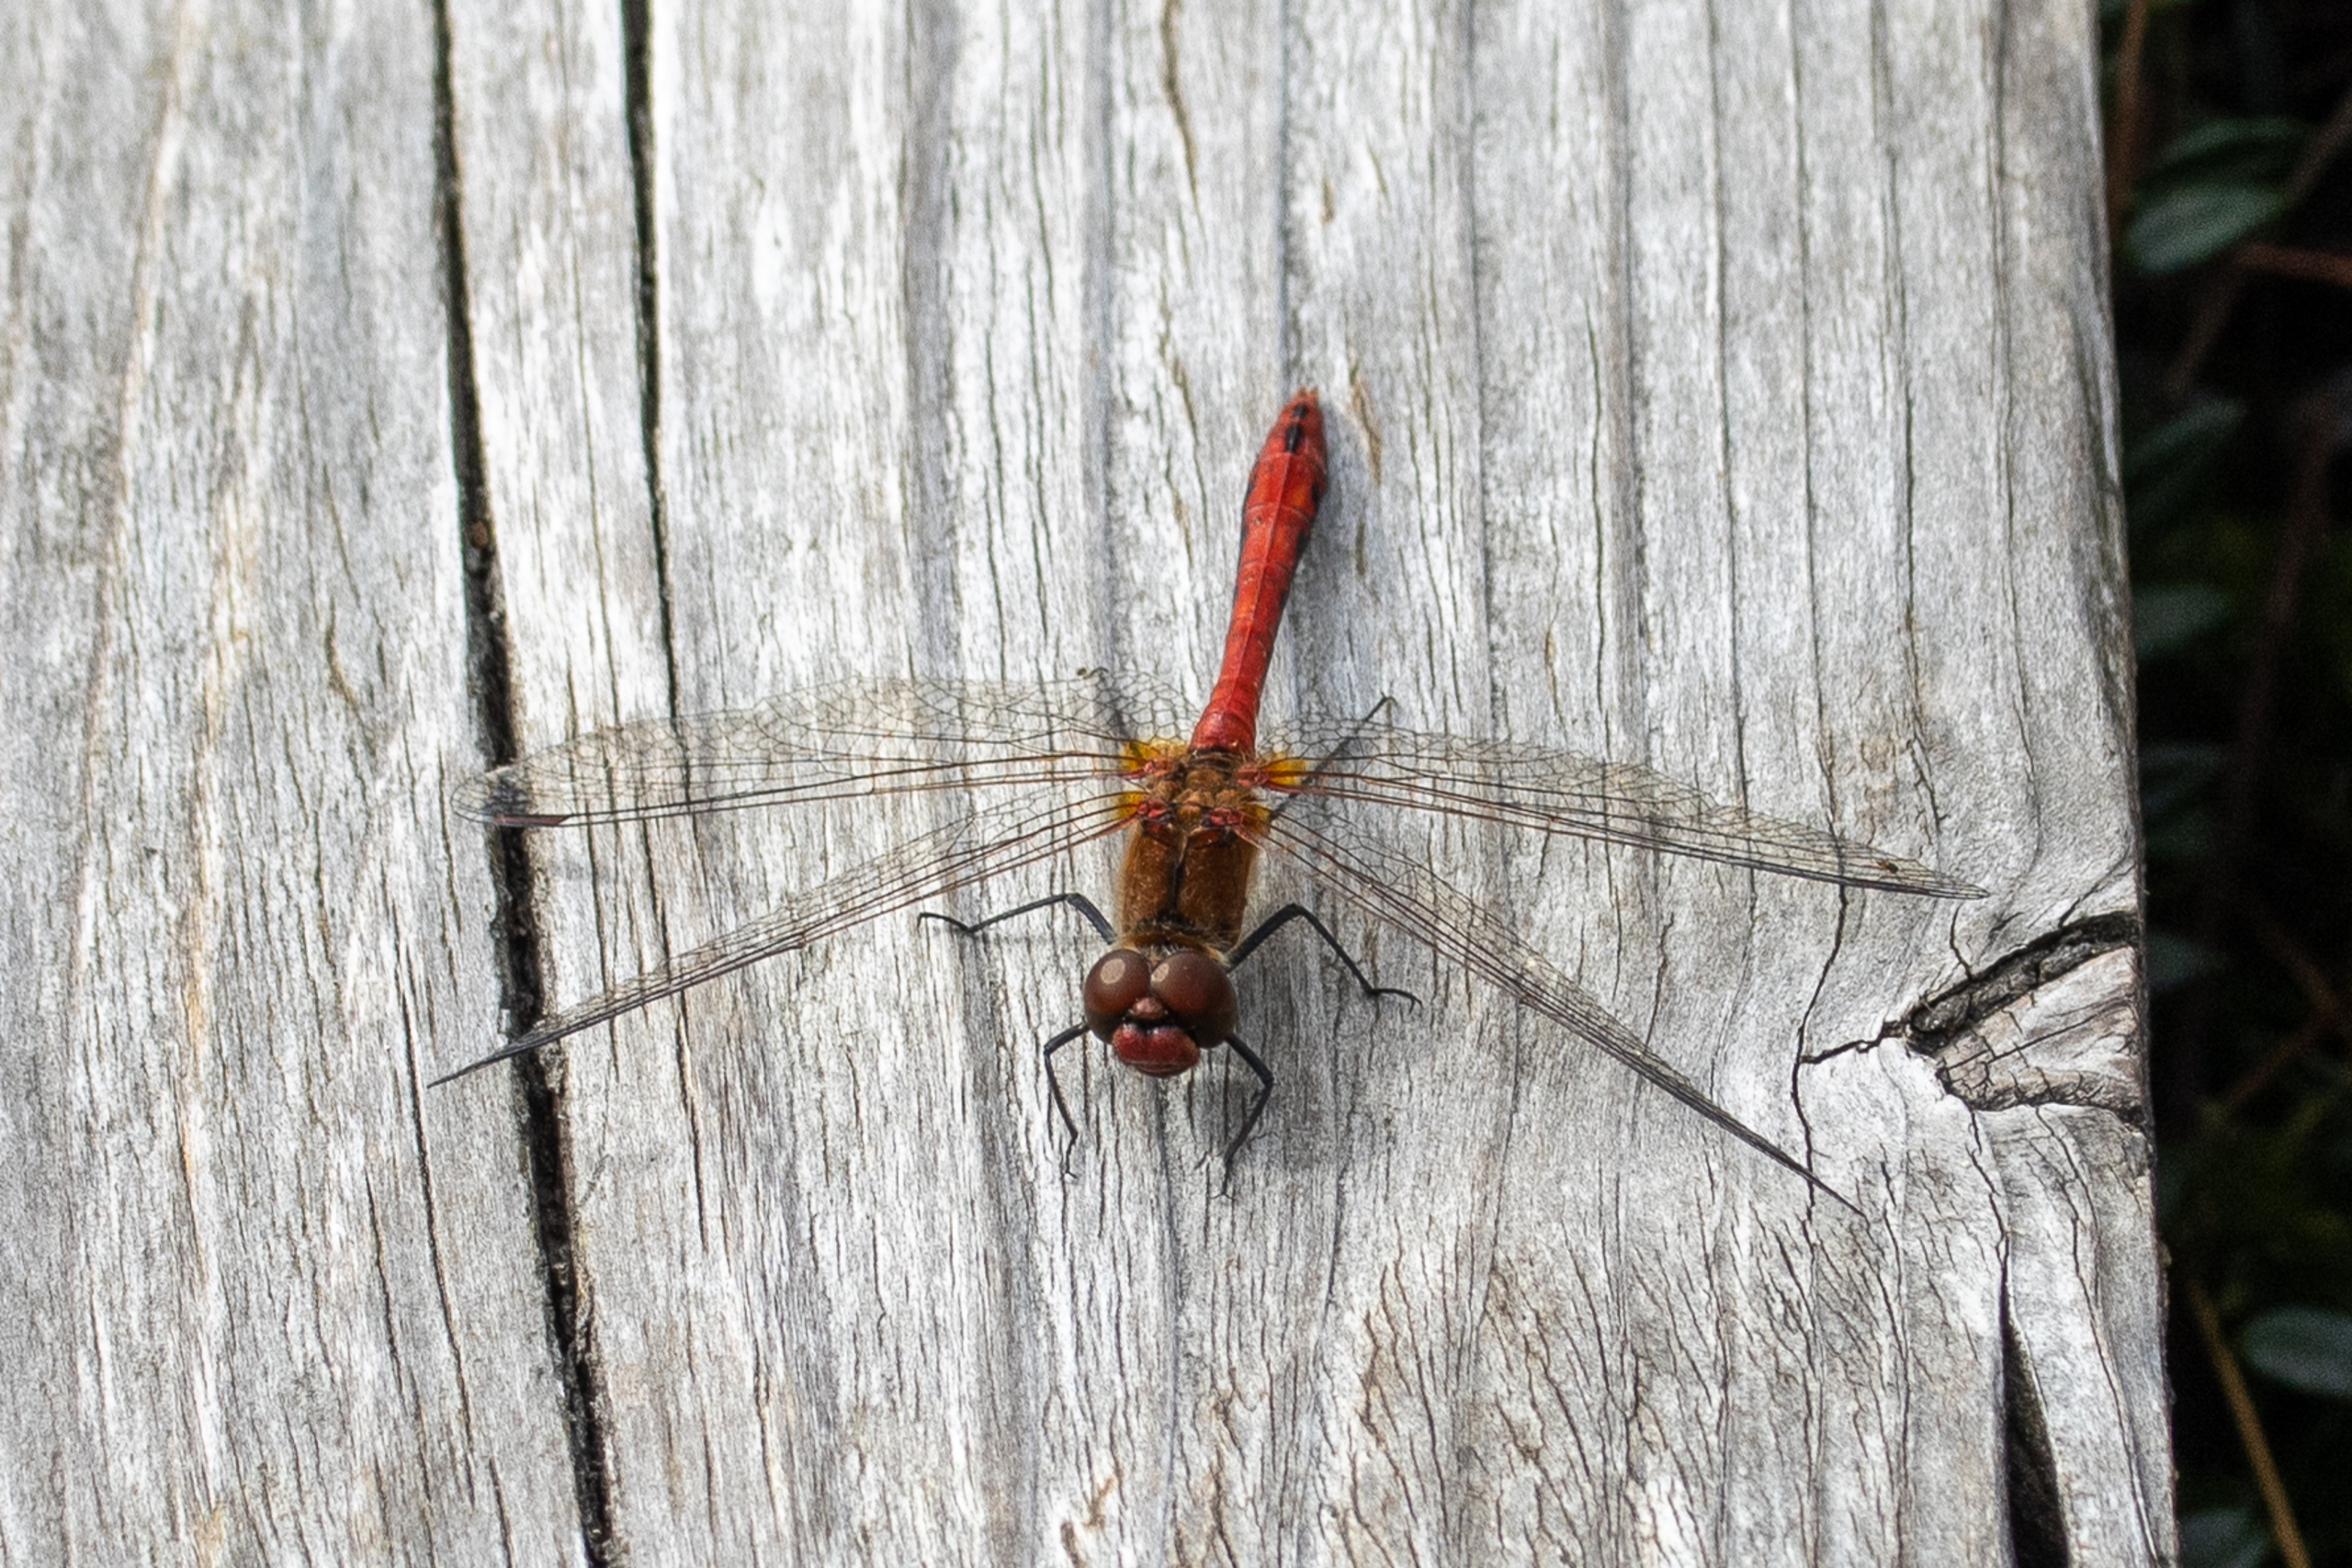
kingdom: Animalia
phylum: Arthropoda
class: Insecta
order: Odonata
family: Libellulidae
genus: Sympetrum
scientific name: Sympetrum sanguineum
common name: Blodrød hedelibel
